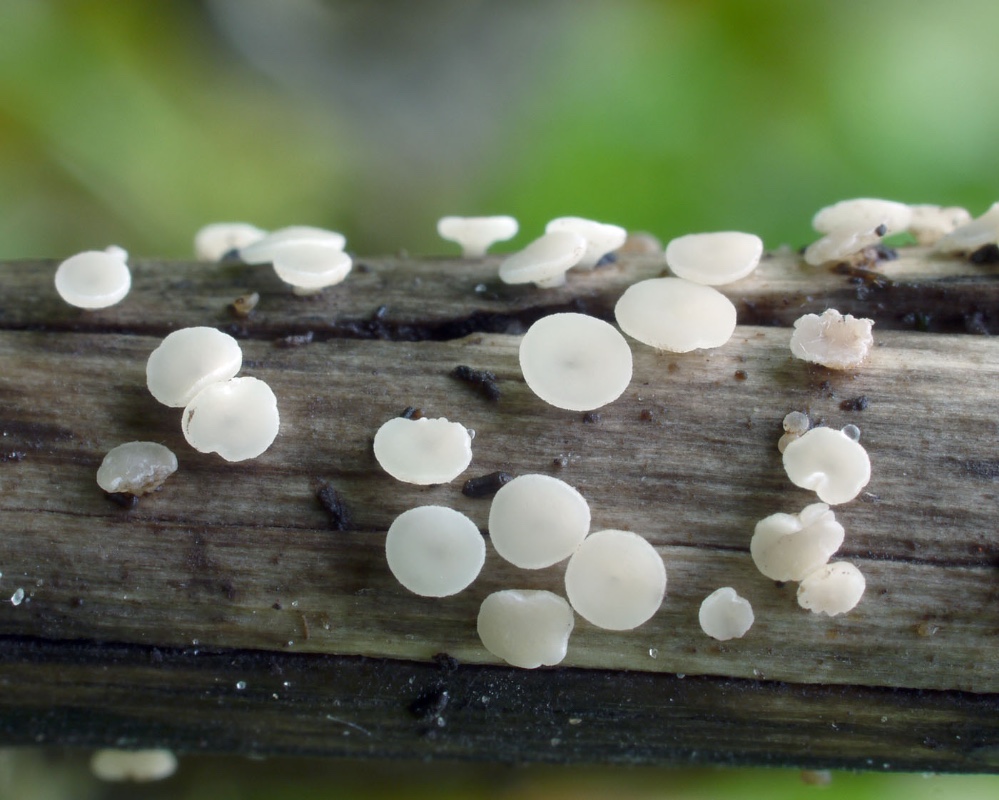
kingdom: Fungi
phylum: Ascomycota
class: Leotiomycetes
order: Helotiales
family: Pezizellaceae
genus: Calycina
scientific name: Calycina herbarum
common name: elfenbens-gulskive
